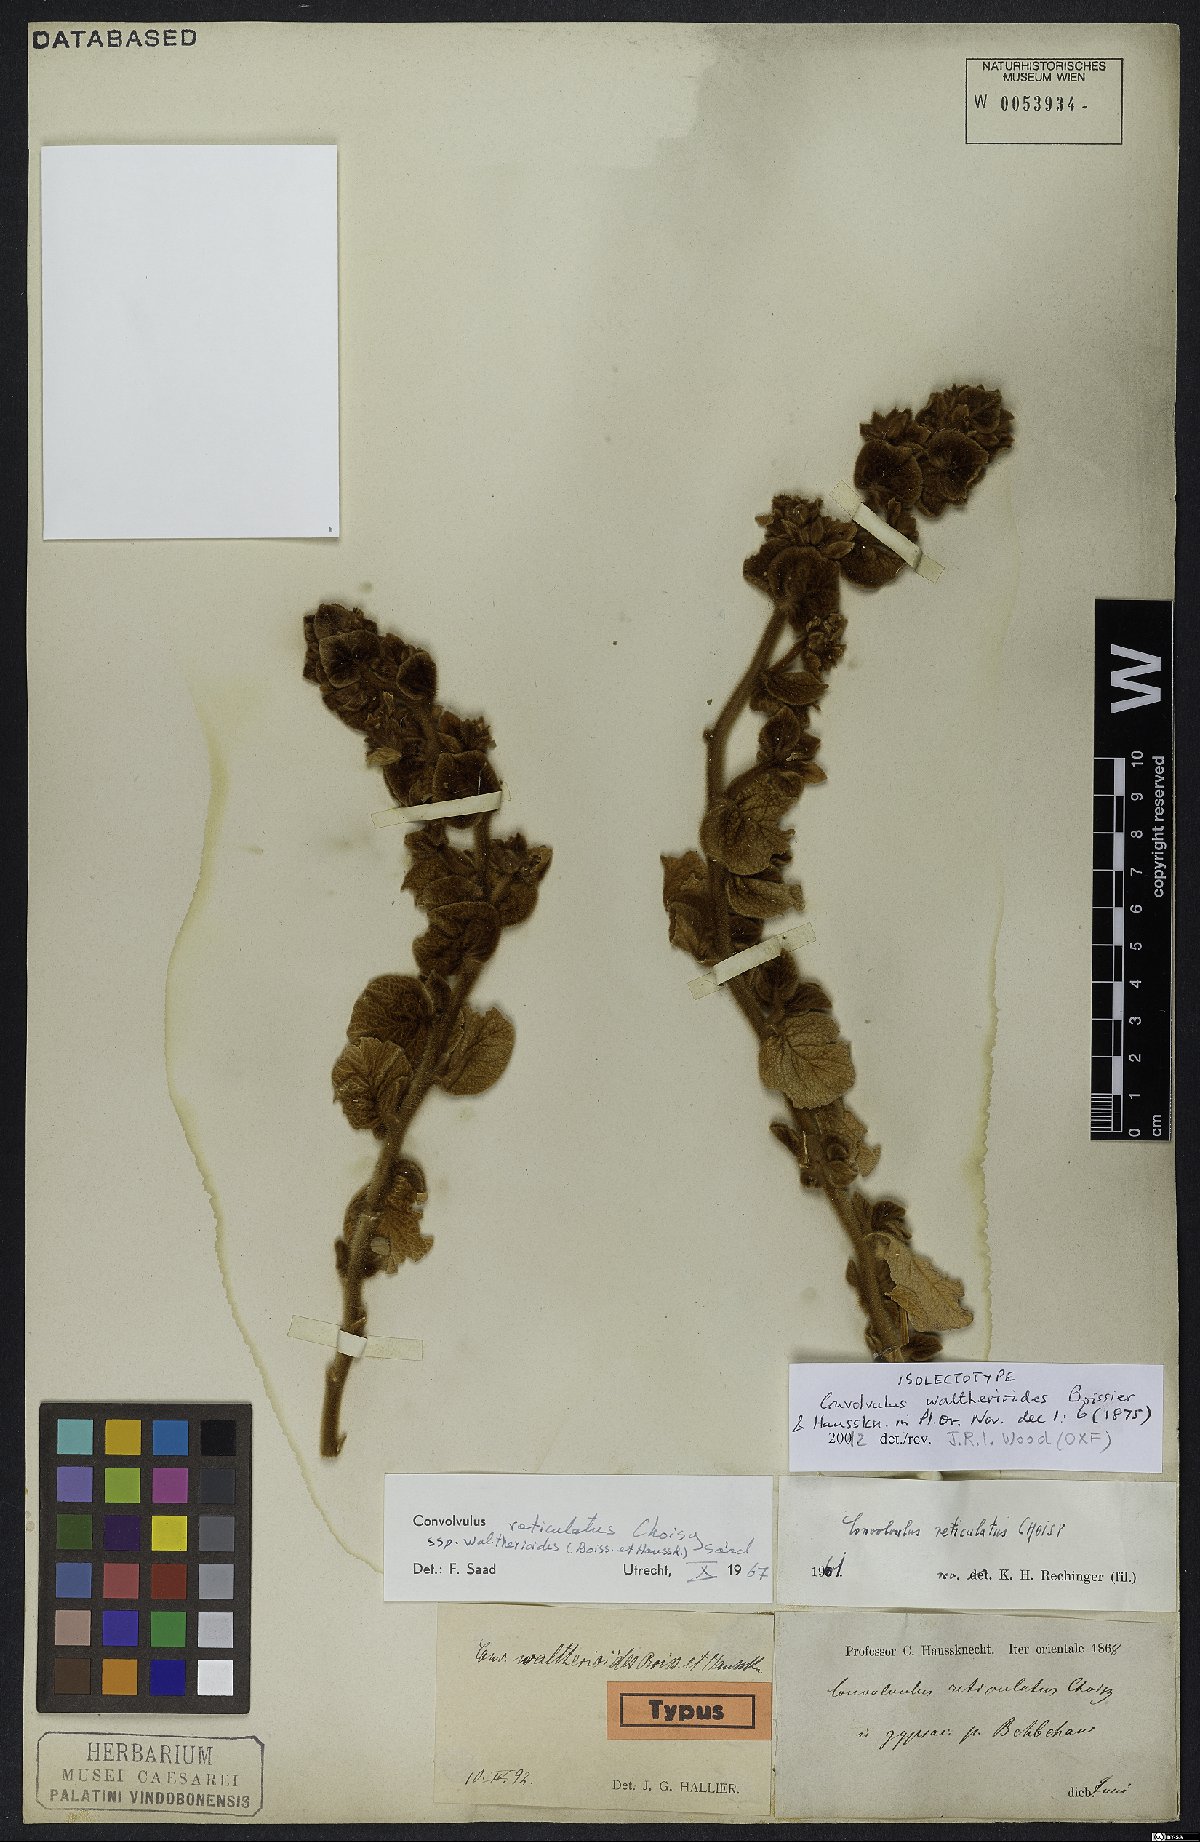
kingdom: Plantae
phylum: Tracheophyta
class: Magnoliopsida
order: Solanales
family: Convolvulaceae
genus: Convolvulus
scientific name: Convolvulus reticulatus
